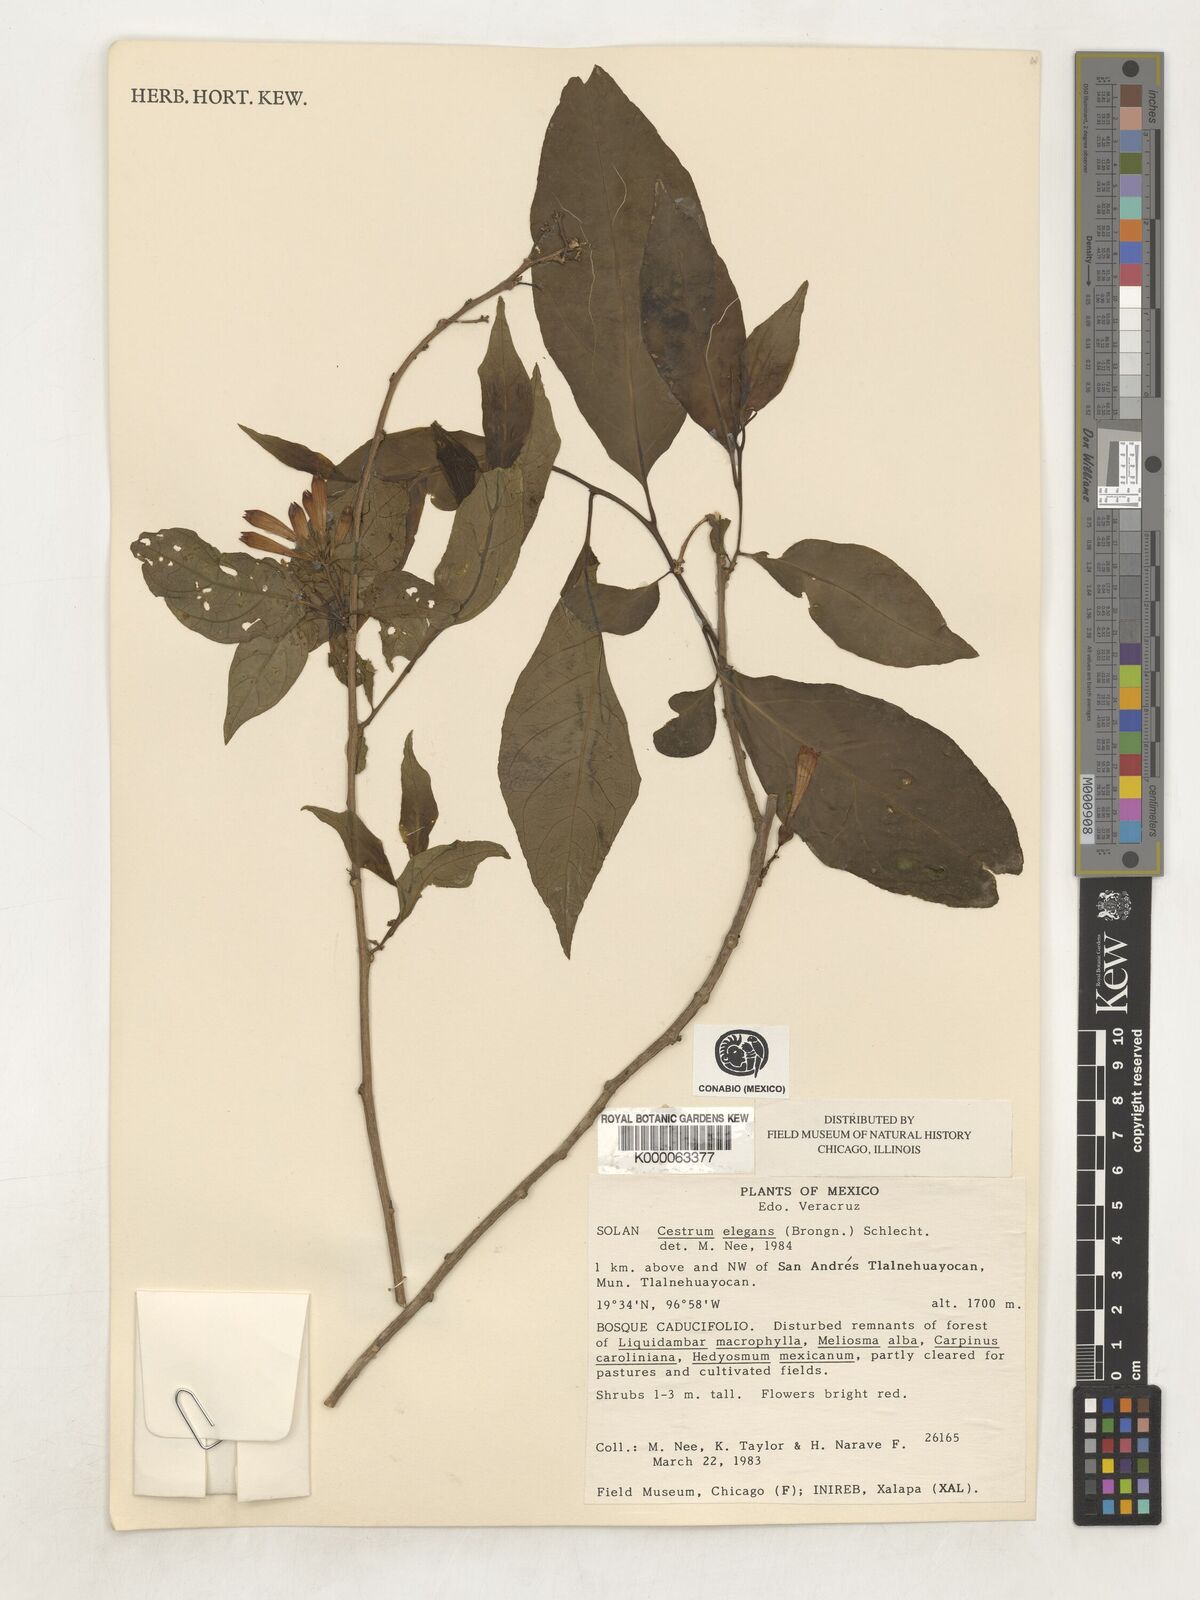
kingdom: Plantae
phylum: Tracheophyta
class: Magnoliopsida
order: Solanales
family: Solanaceae
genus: Cestrum
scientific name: Cestrum elegans
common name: Crimson cestrum
